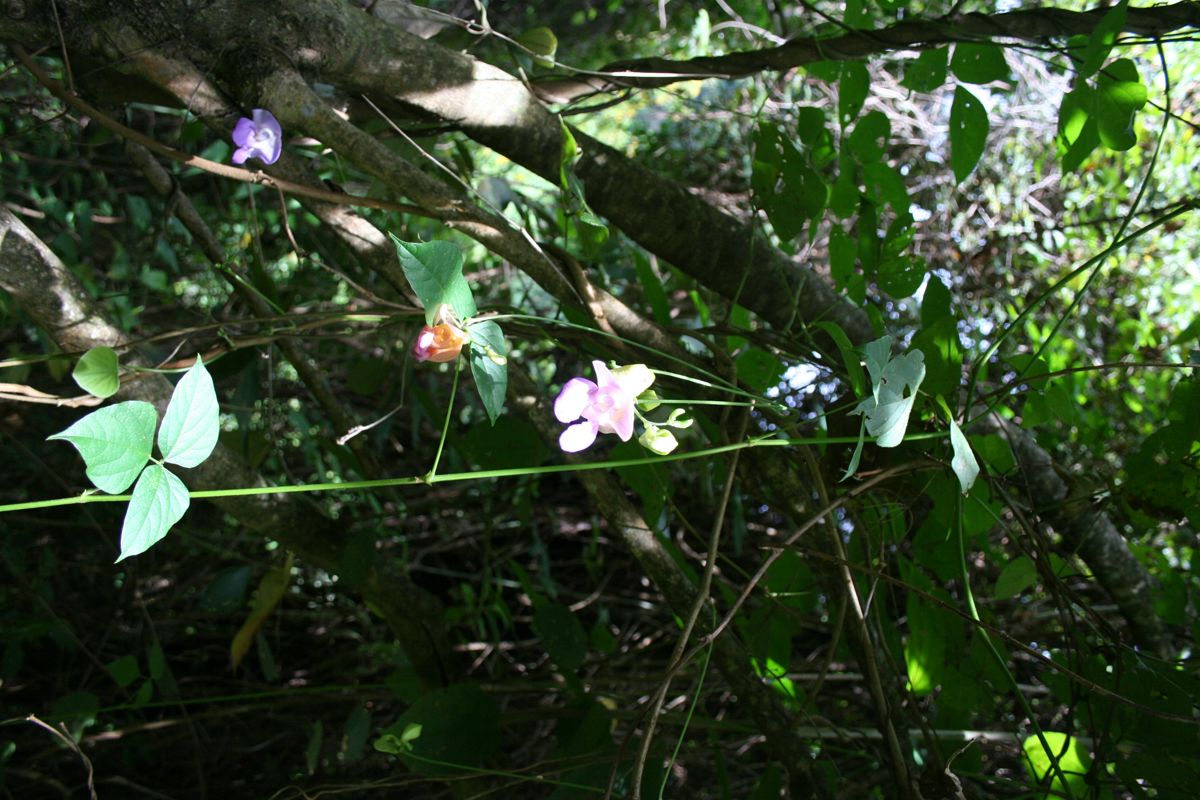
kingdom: Plantae
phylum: Tracheophyta
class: Magnoliopsida
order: Fabales
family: Fabaceae
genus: Sigmoidotropis
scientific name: Sigmoidotropis speciosa
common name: Snail flower
